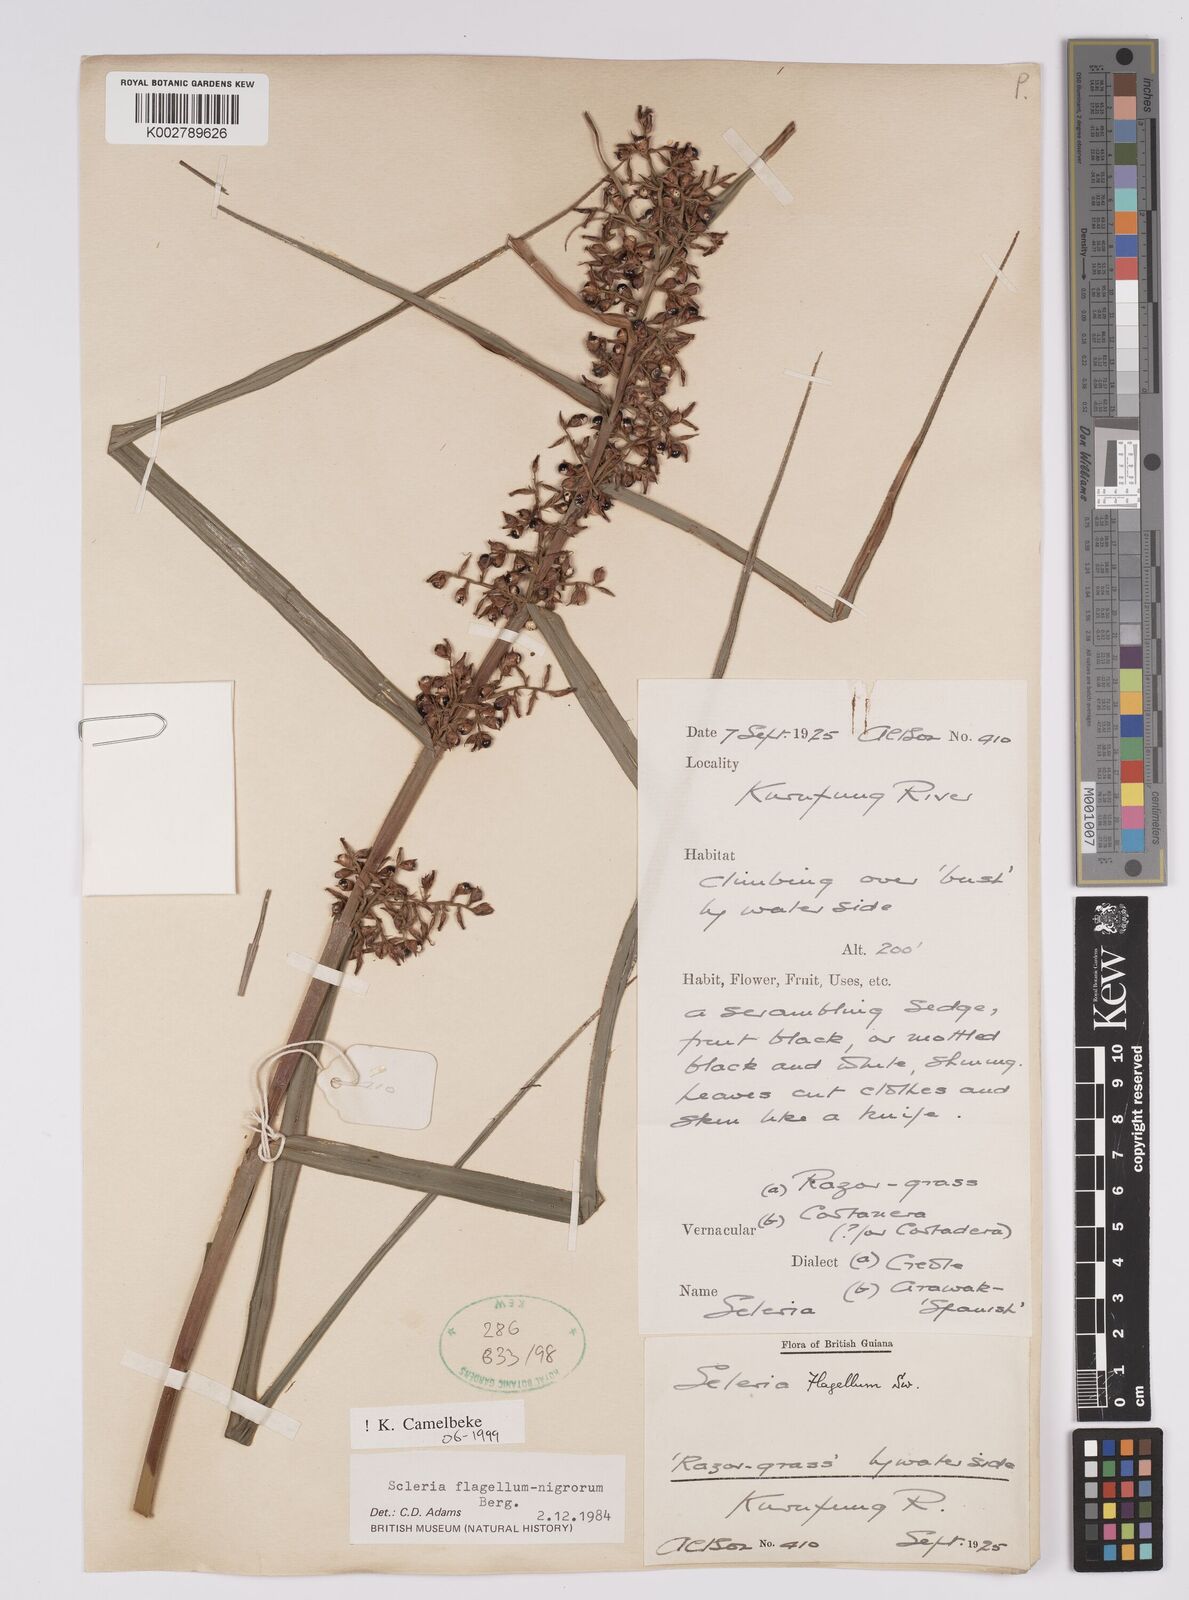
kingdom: Plantae
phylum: Tracheophyta
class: Liliopsida
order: Poales
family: Cyperaceae
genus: Scleria
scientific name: Scleria flagellum-nigrorum
